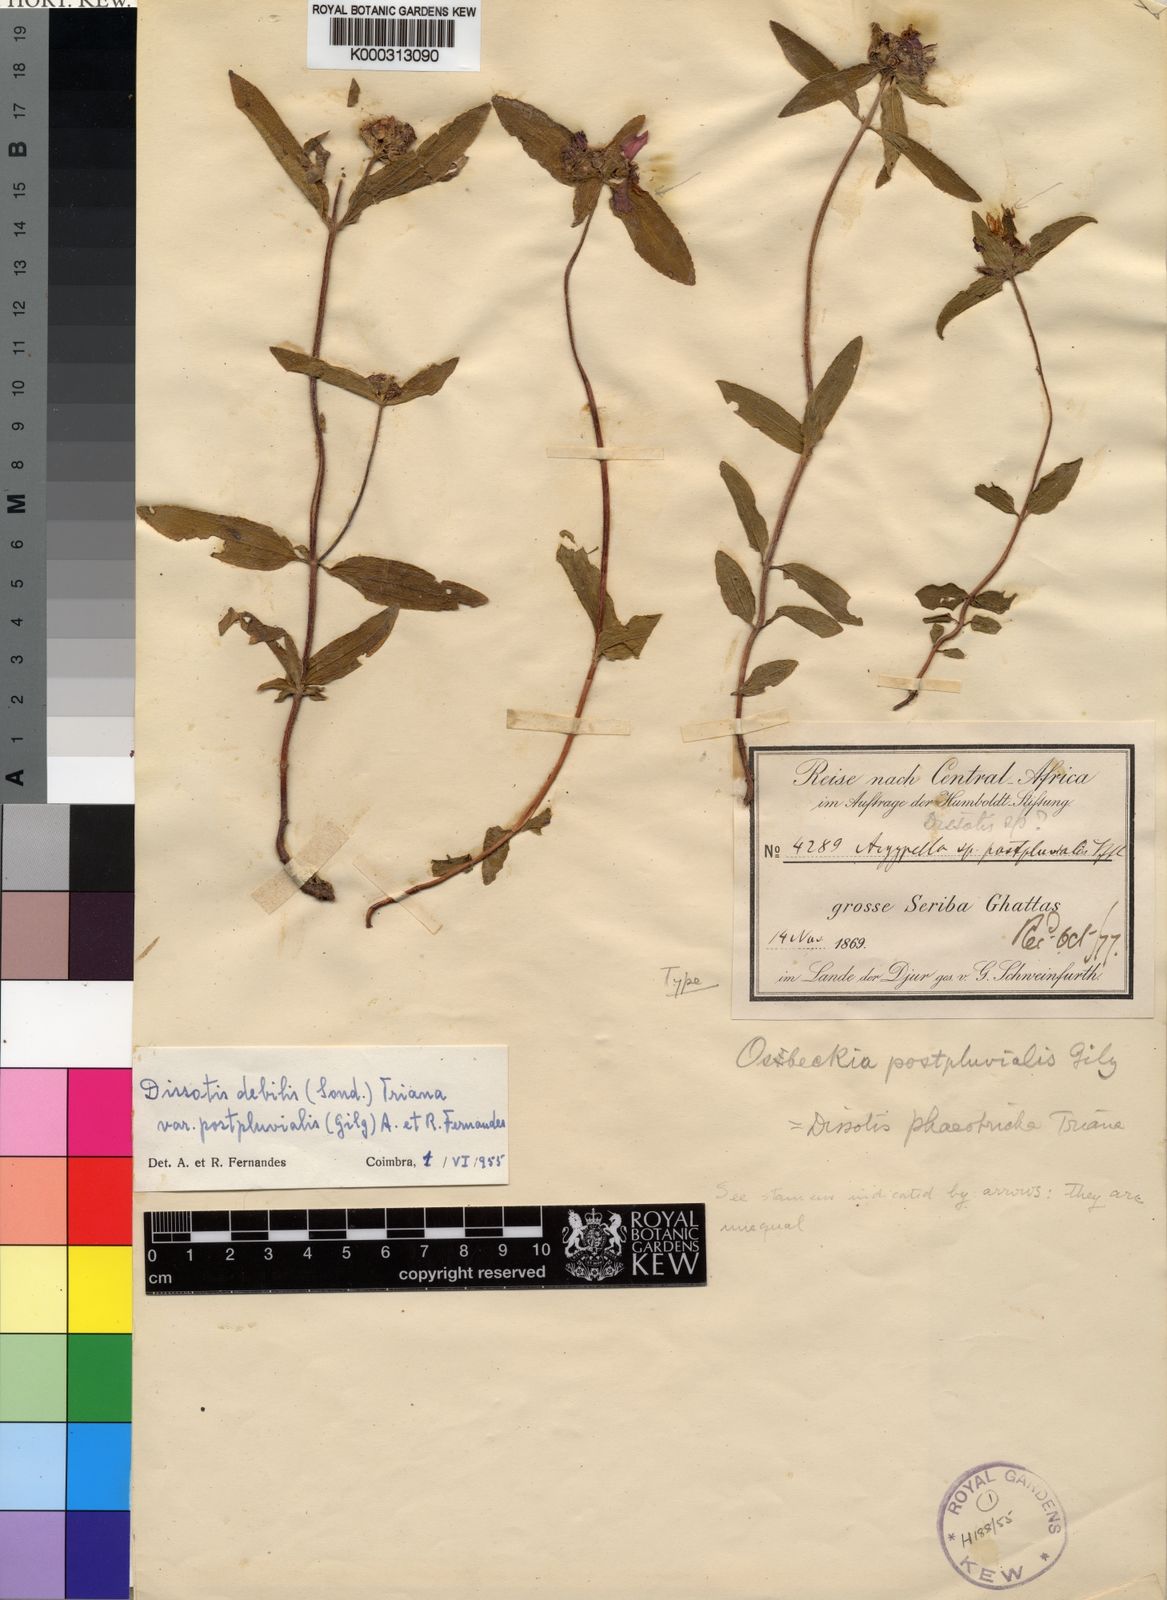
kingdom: Plantae
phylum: Tracheophyta
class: Magnoliopsida
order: Myrtales
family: Melastomataceae
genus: Antherotoma
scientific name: Antherotoma
